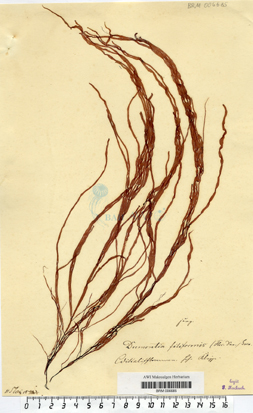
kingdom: Plantae
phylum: Rhodophyta
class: Florideophyceae
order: Gigartinales
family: Dumontiaceae
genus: Dumontia
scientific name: Dumontia contorta
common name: Worm weed
